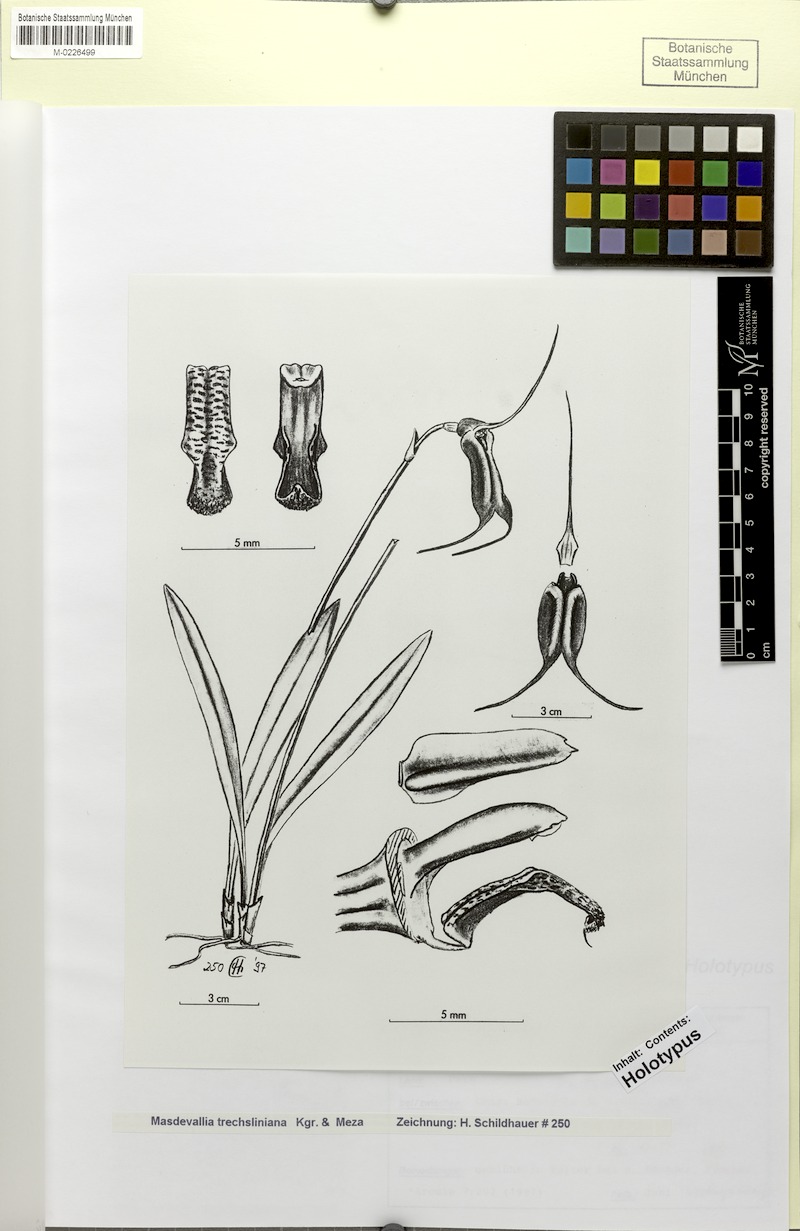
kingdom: Plantae
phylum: Tracheophyta
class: Liliopsida
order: Asparagales
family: Orchidaceae
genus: Masdevallia
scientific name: Masdevallia trechsliniana
